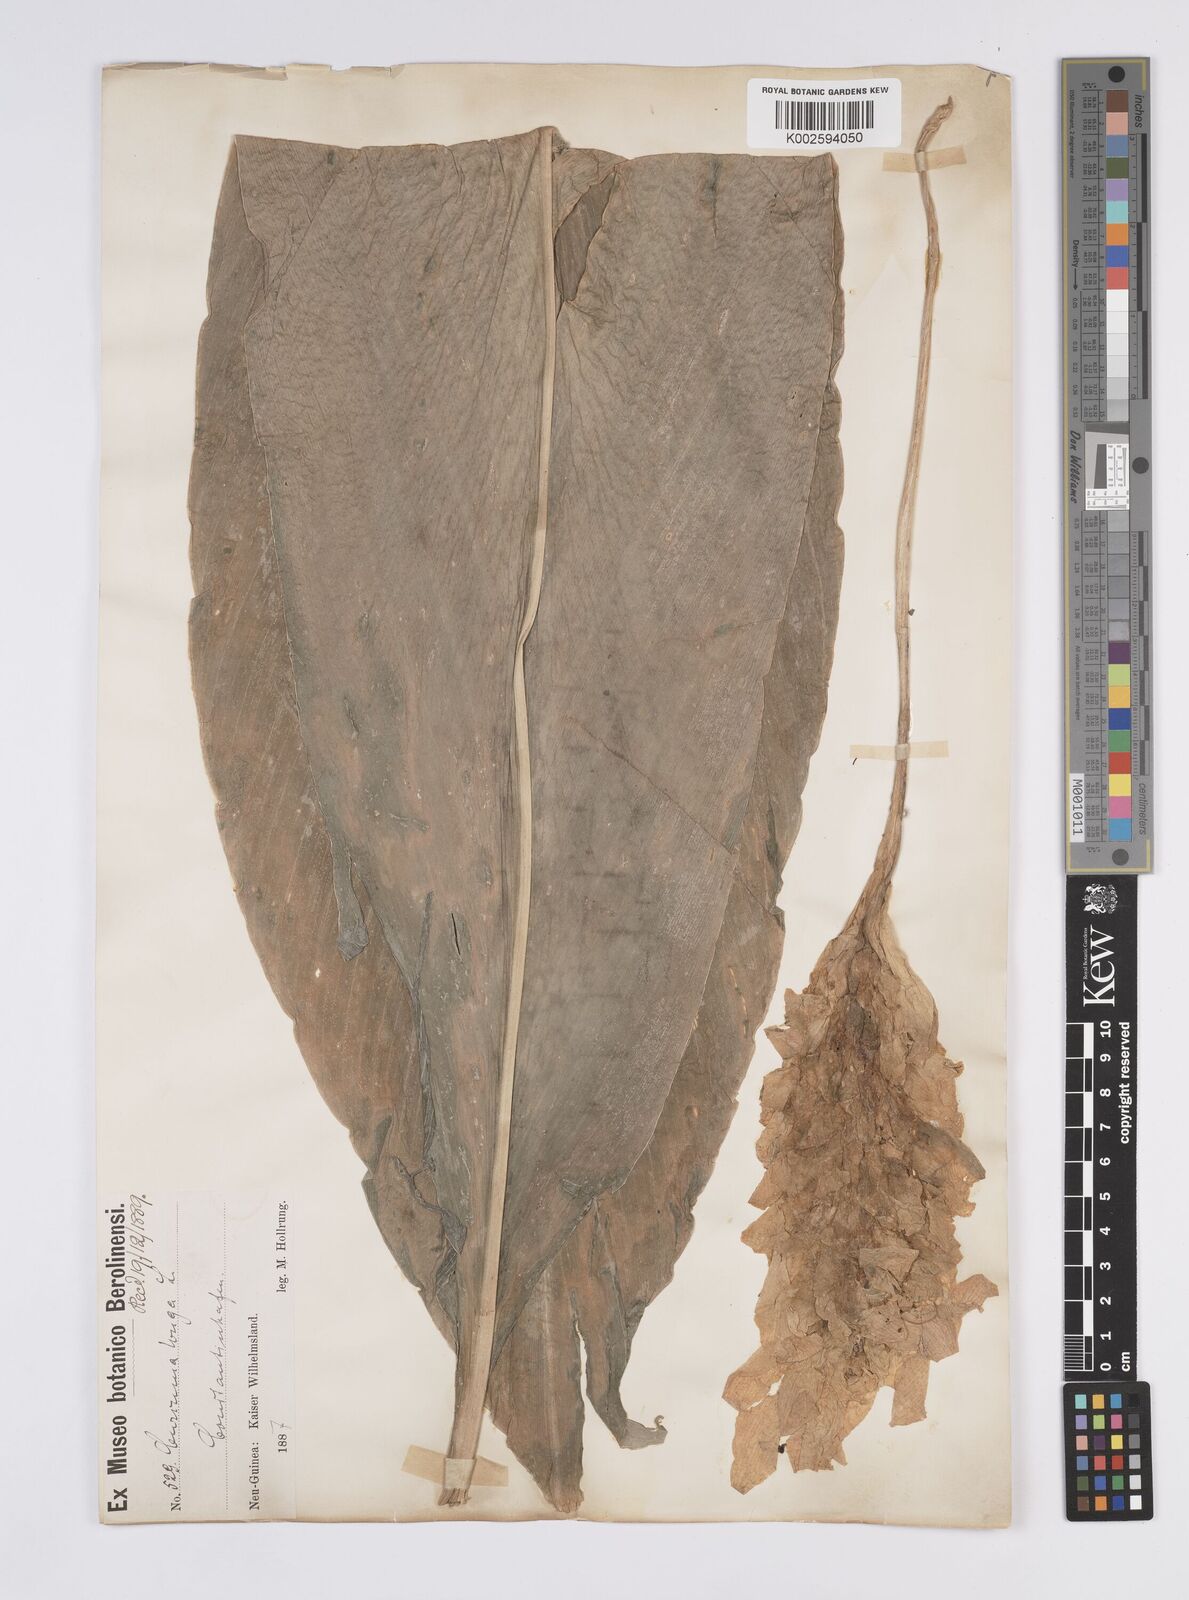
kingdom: Plantae
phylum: Tracheophyta
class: Liliopsida
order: Zingiberales
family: Zingiberaceae
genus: Curcuma
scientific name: Curcuma
